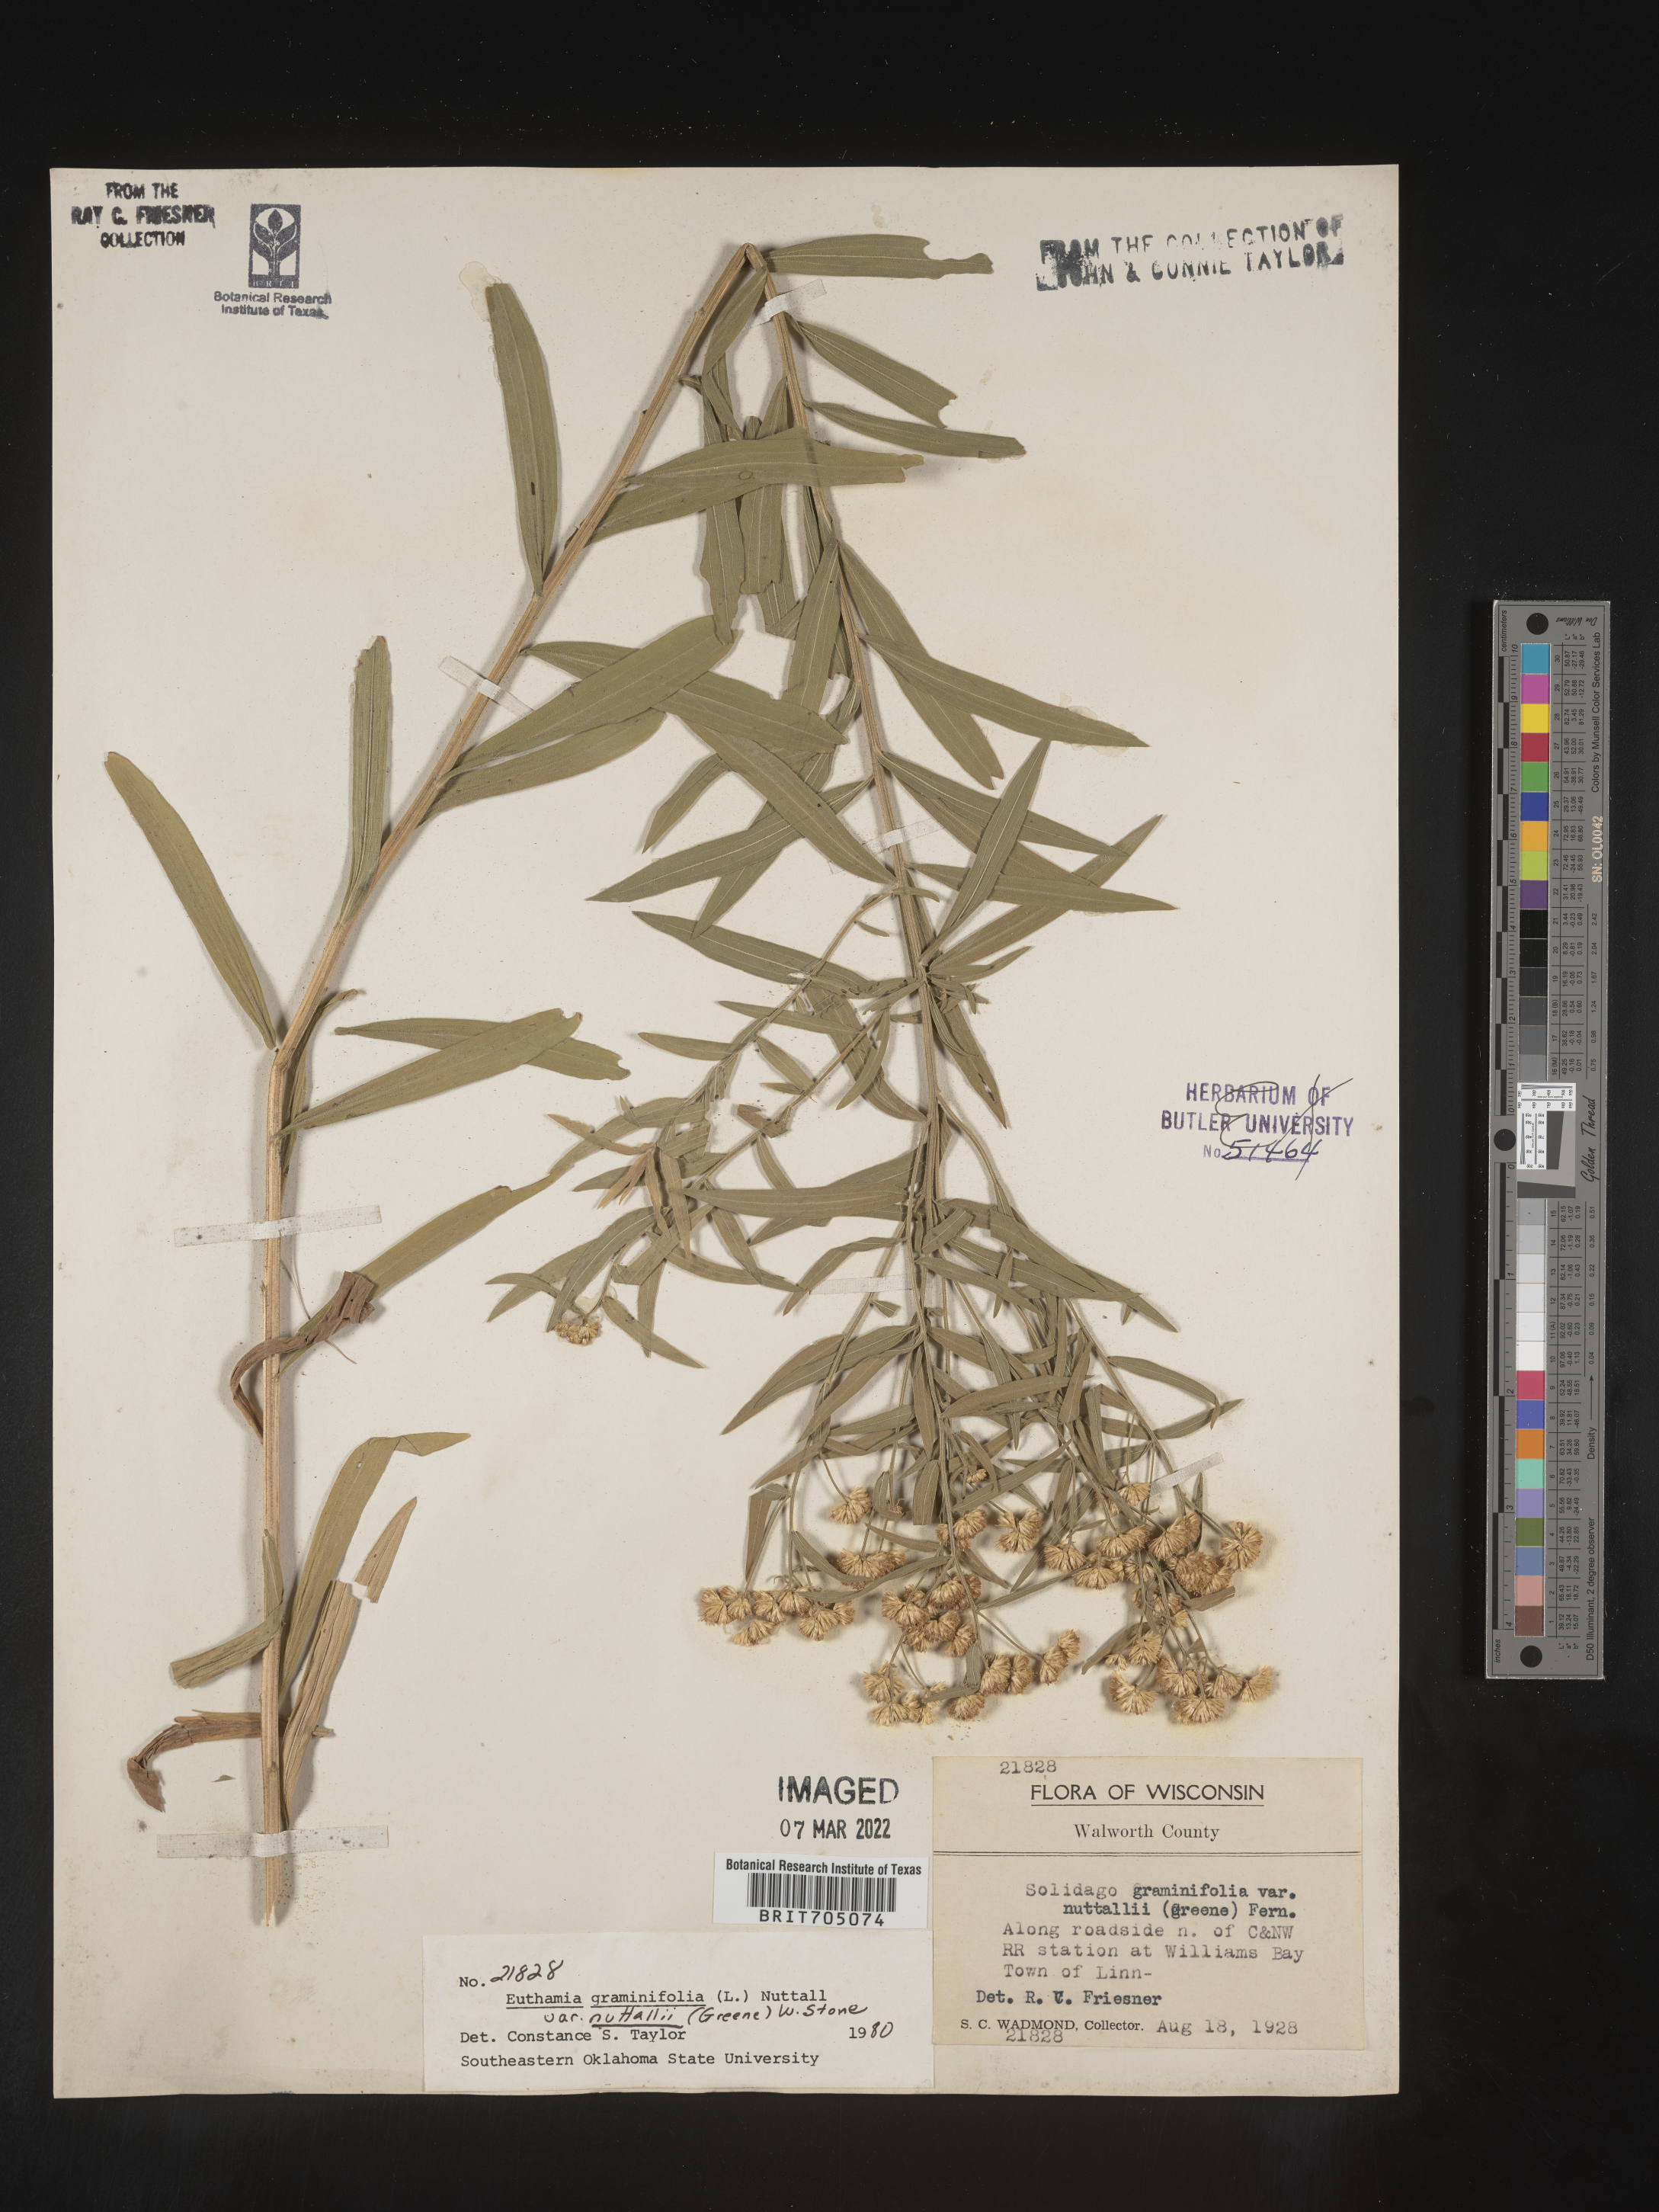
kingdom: Plantae
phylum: Tracheophyta
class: Magnoliopsida
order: Asterales
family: Asteraceae
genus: Euthamia
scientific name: Euthamia
